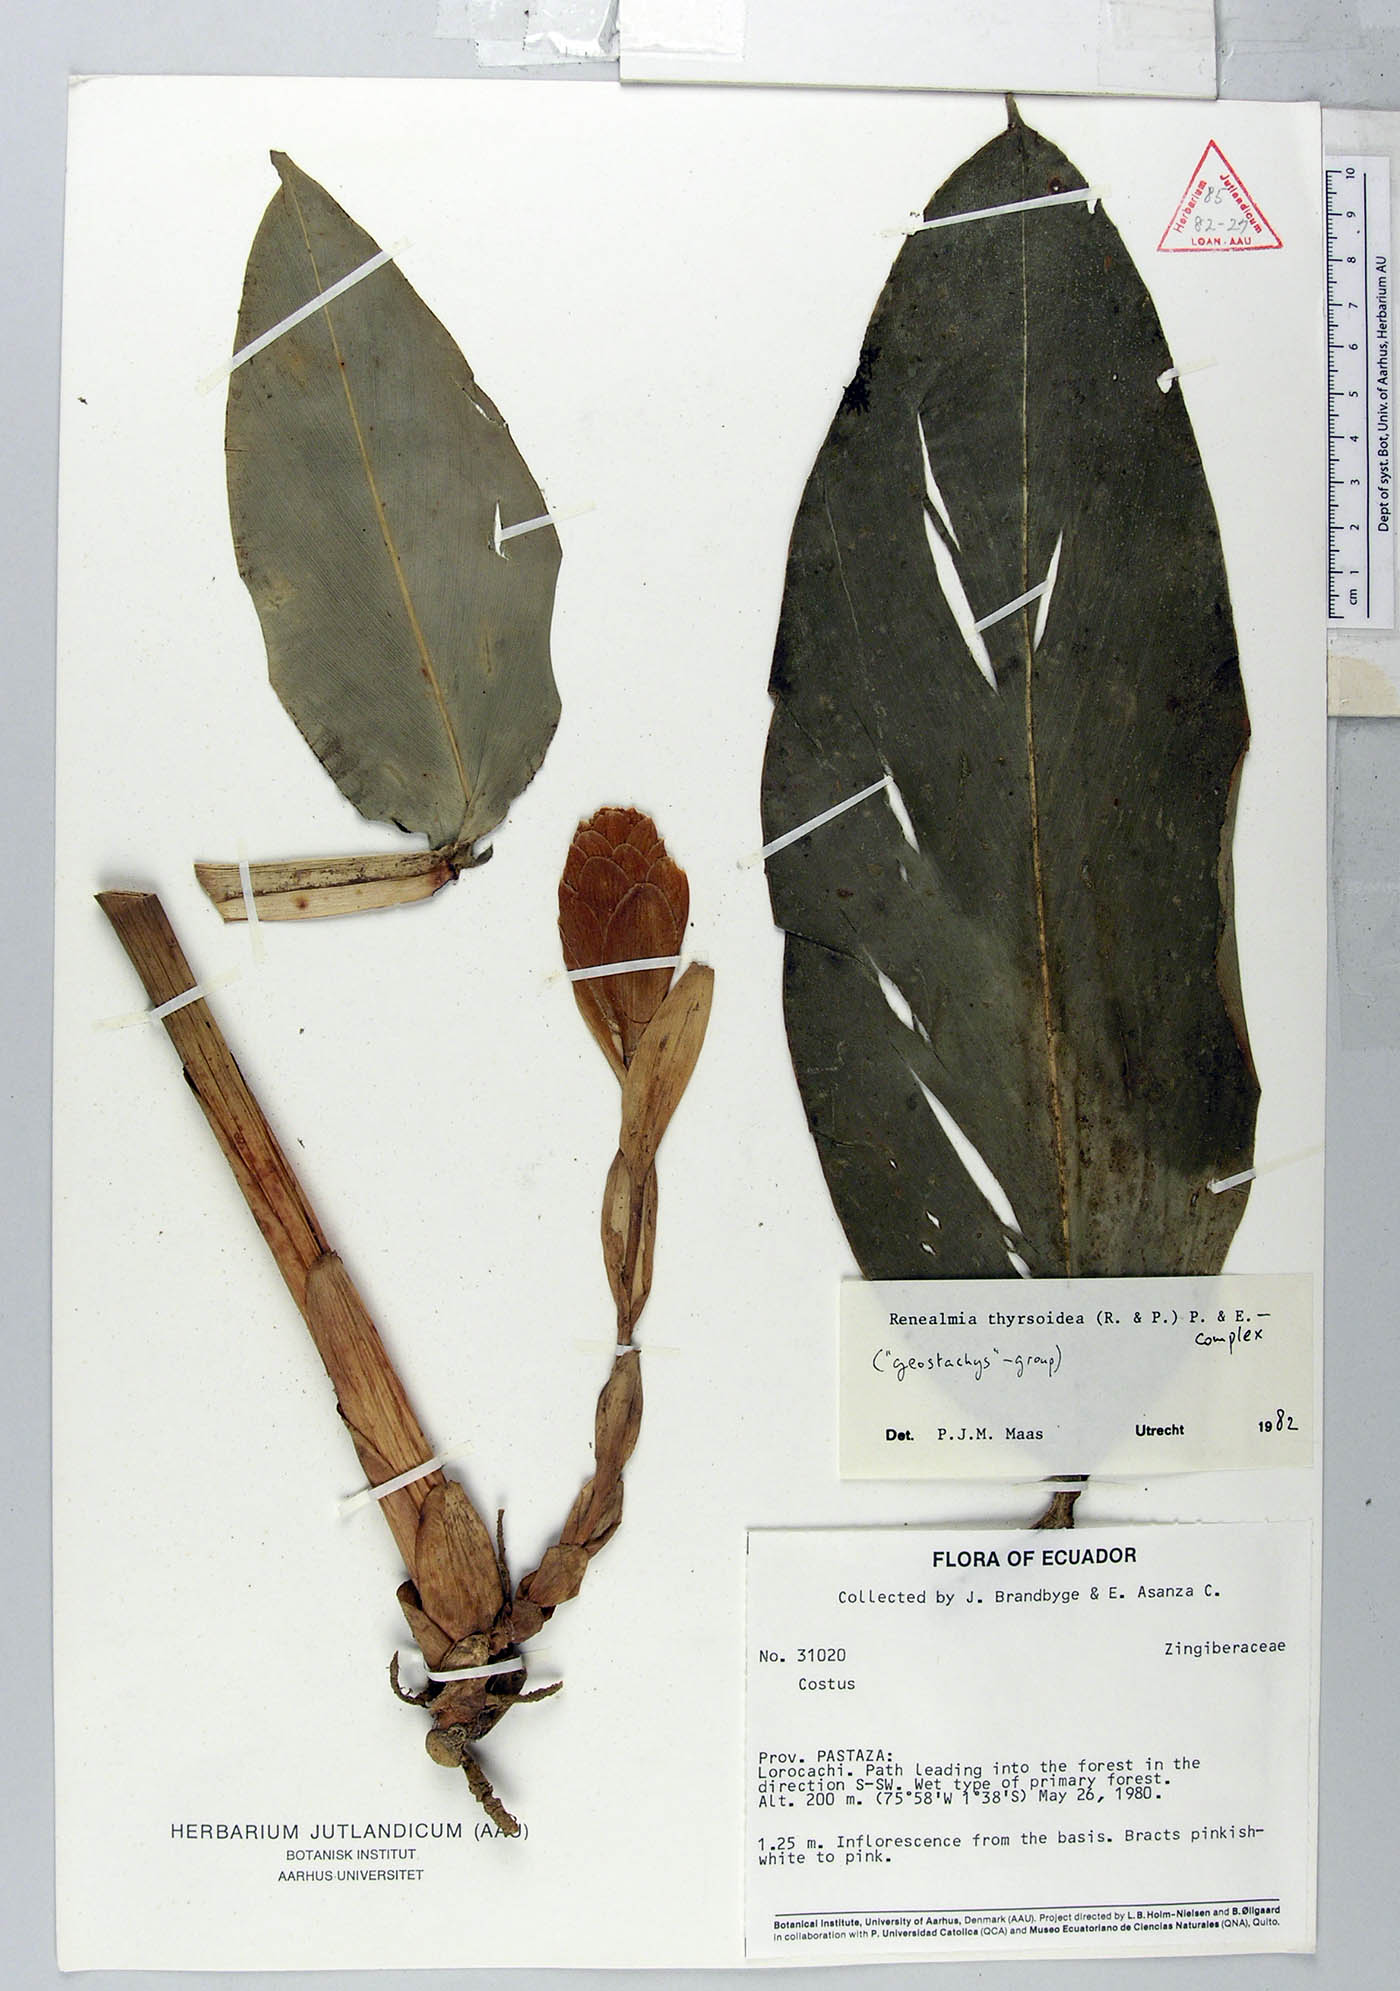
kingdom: Plantae
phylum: Tracheophyta
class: Liliopsida
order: Zingiberales
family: Zingiberaceae
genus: Renealmia
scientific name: Renealmia thyrsoidea
